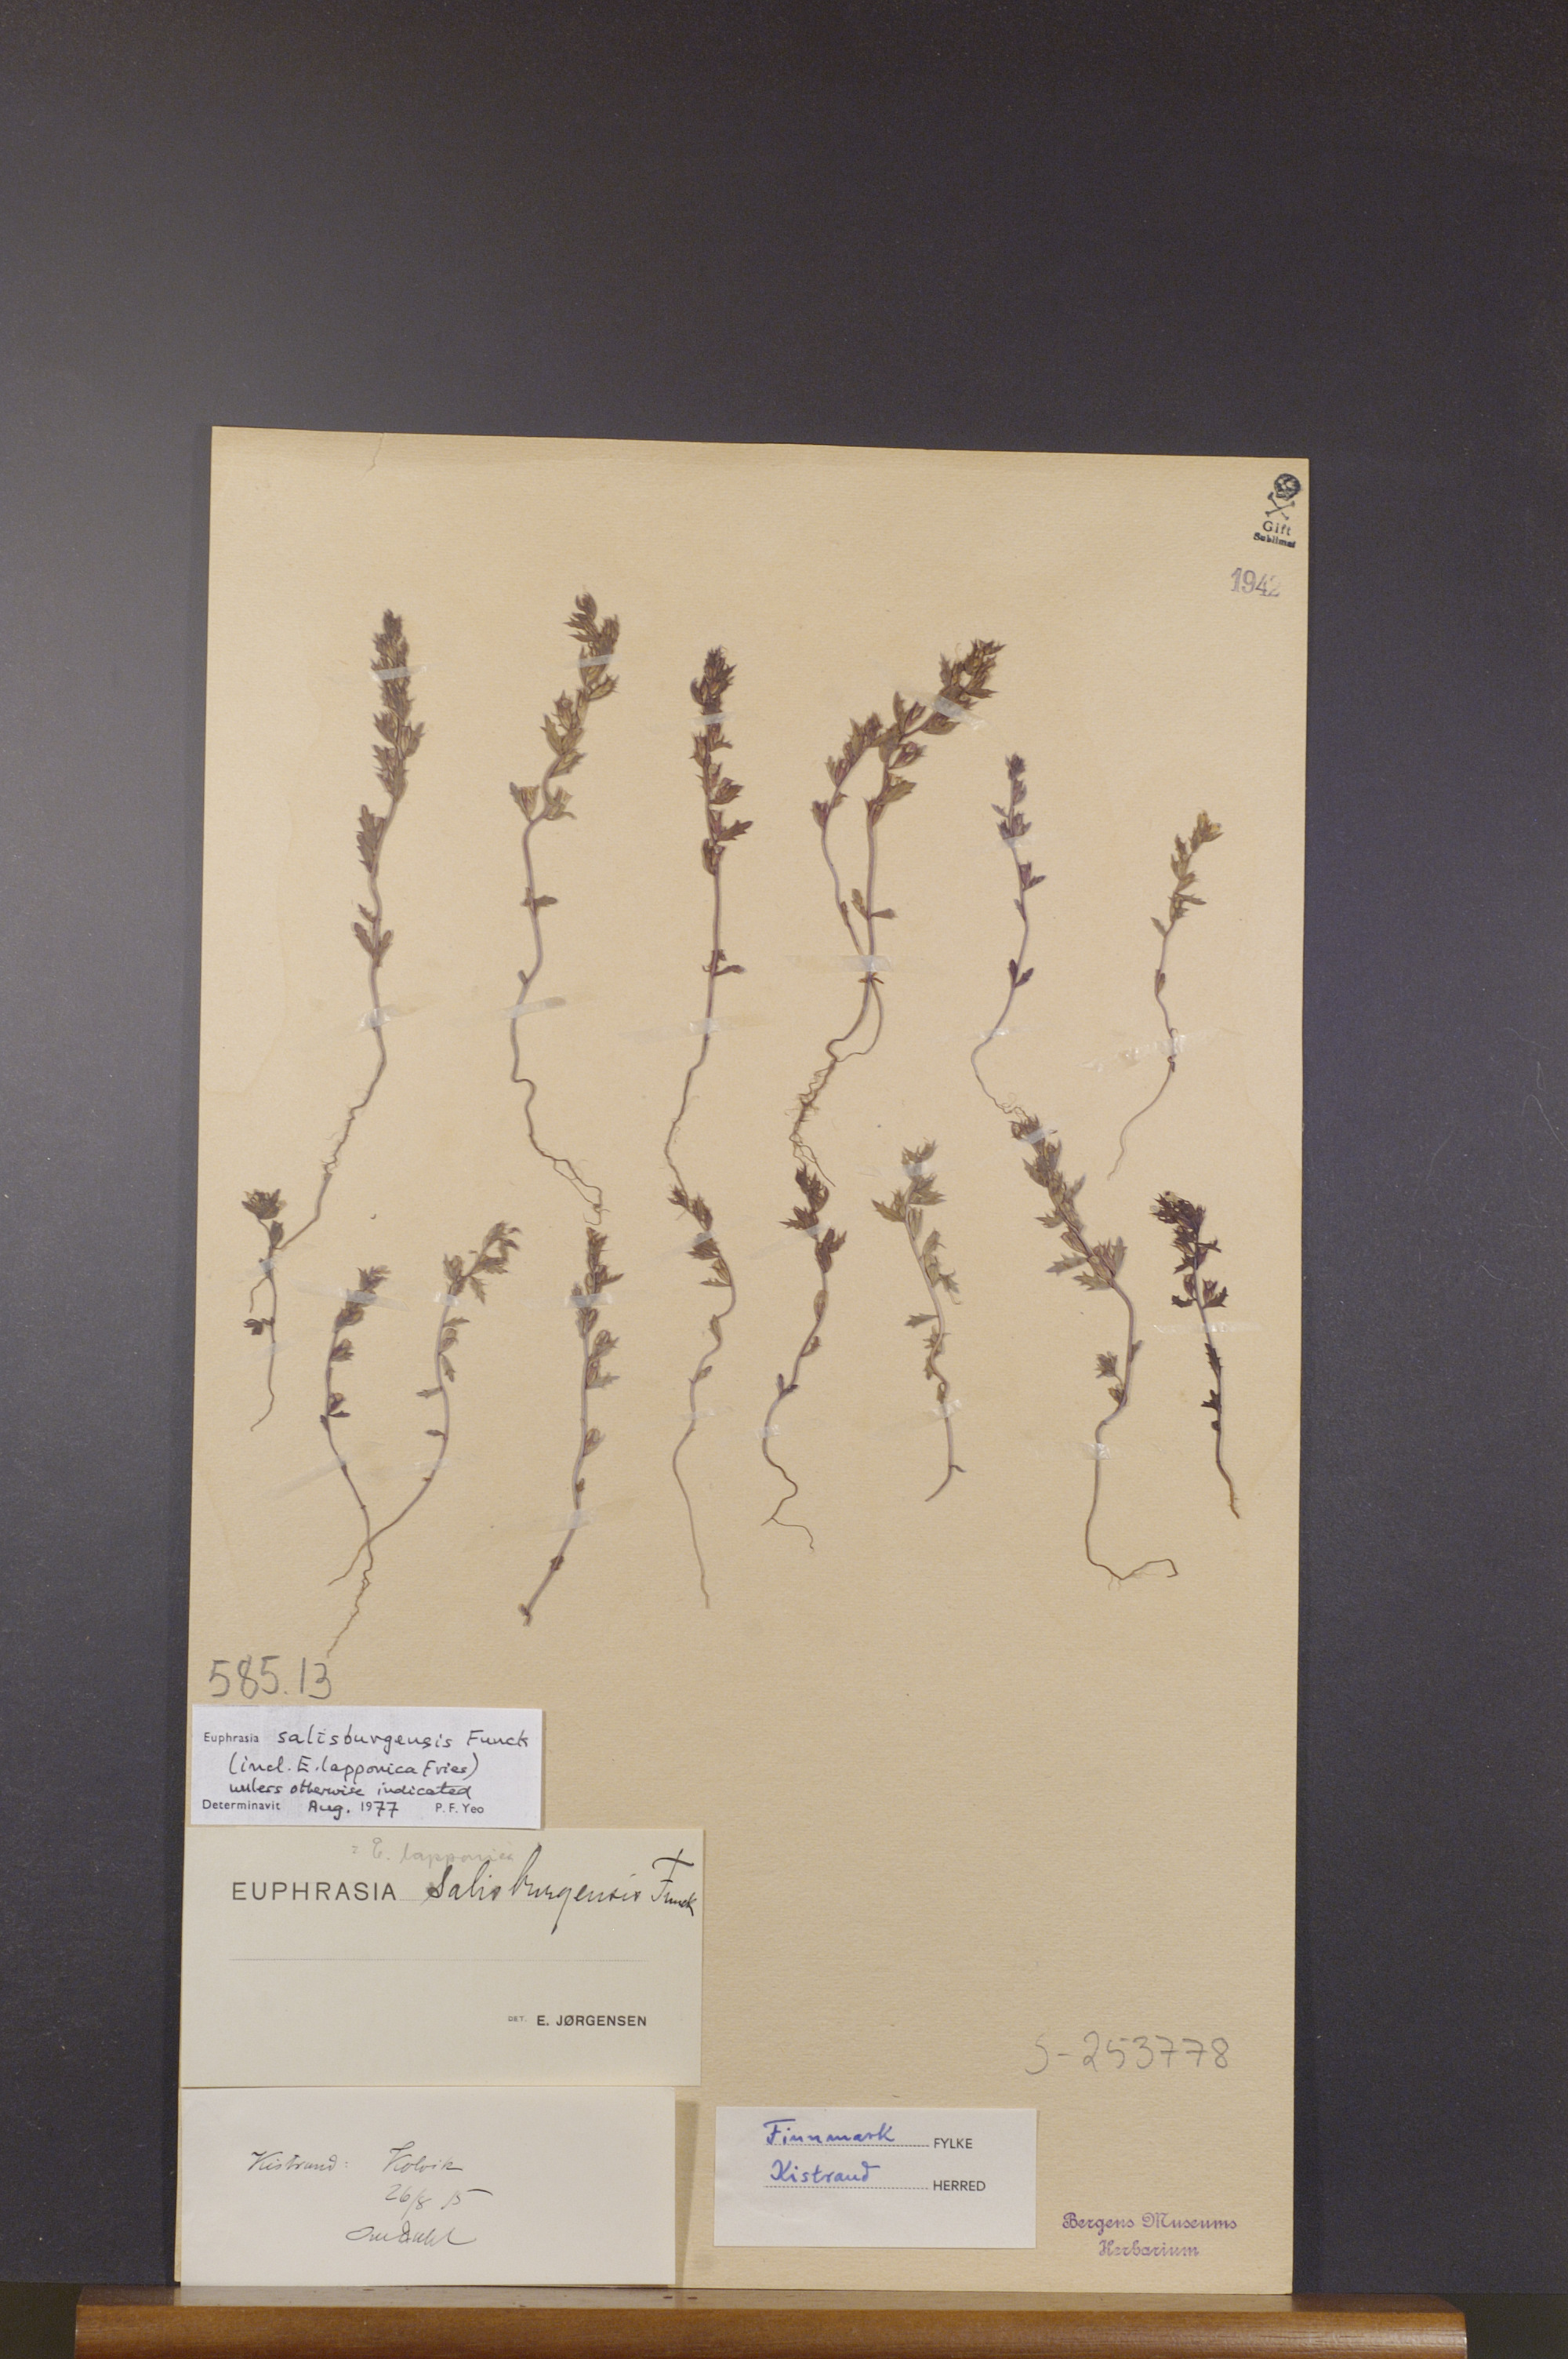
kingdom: Plantae
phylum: Tracheophyta
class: Magnoliopsida
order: Lamiales
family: Orobanchaceae
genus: Euphrasia
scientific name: Euphrasia salisburgensis
